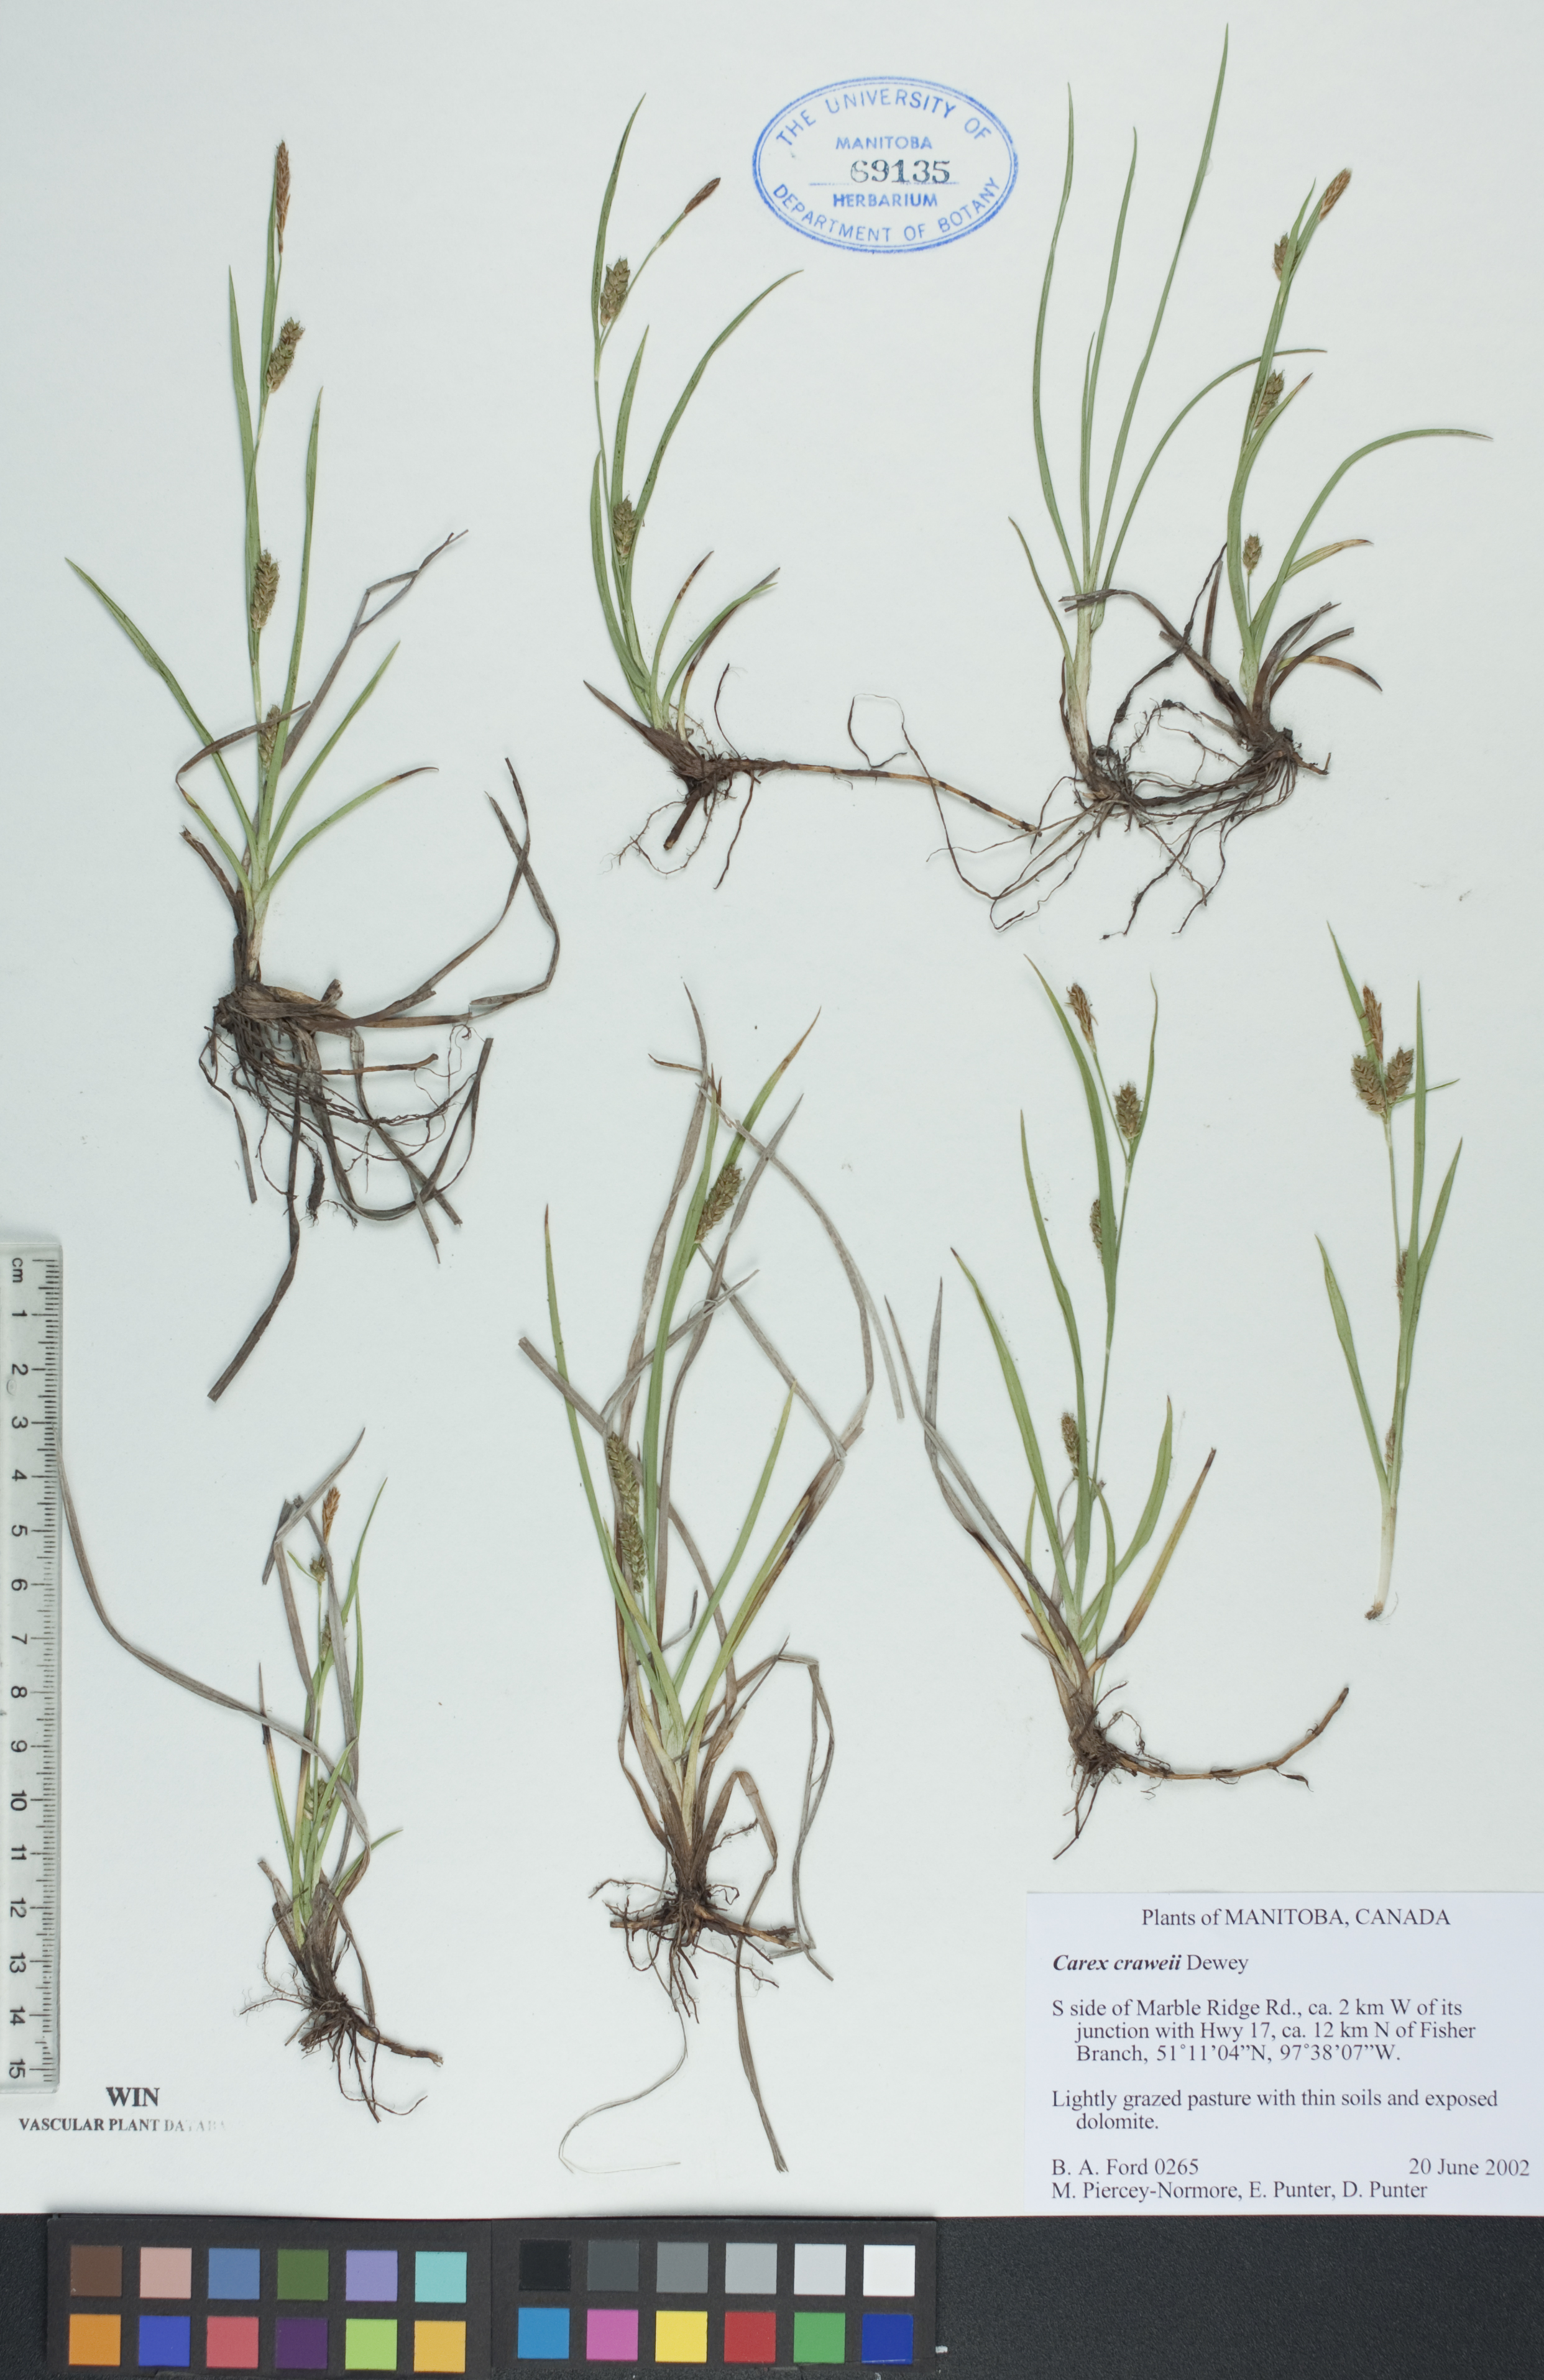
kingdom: Plantae
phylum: Tracheophyta
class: Liliopsida
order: Poales
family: Cyperaceae
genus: Carex
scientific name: Carex crawei
